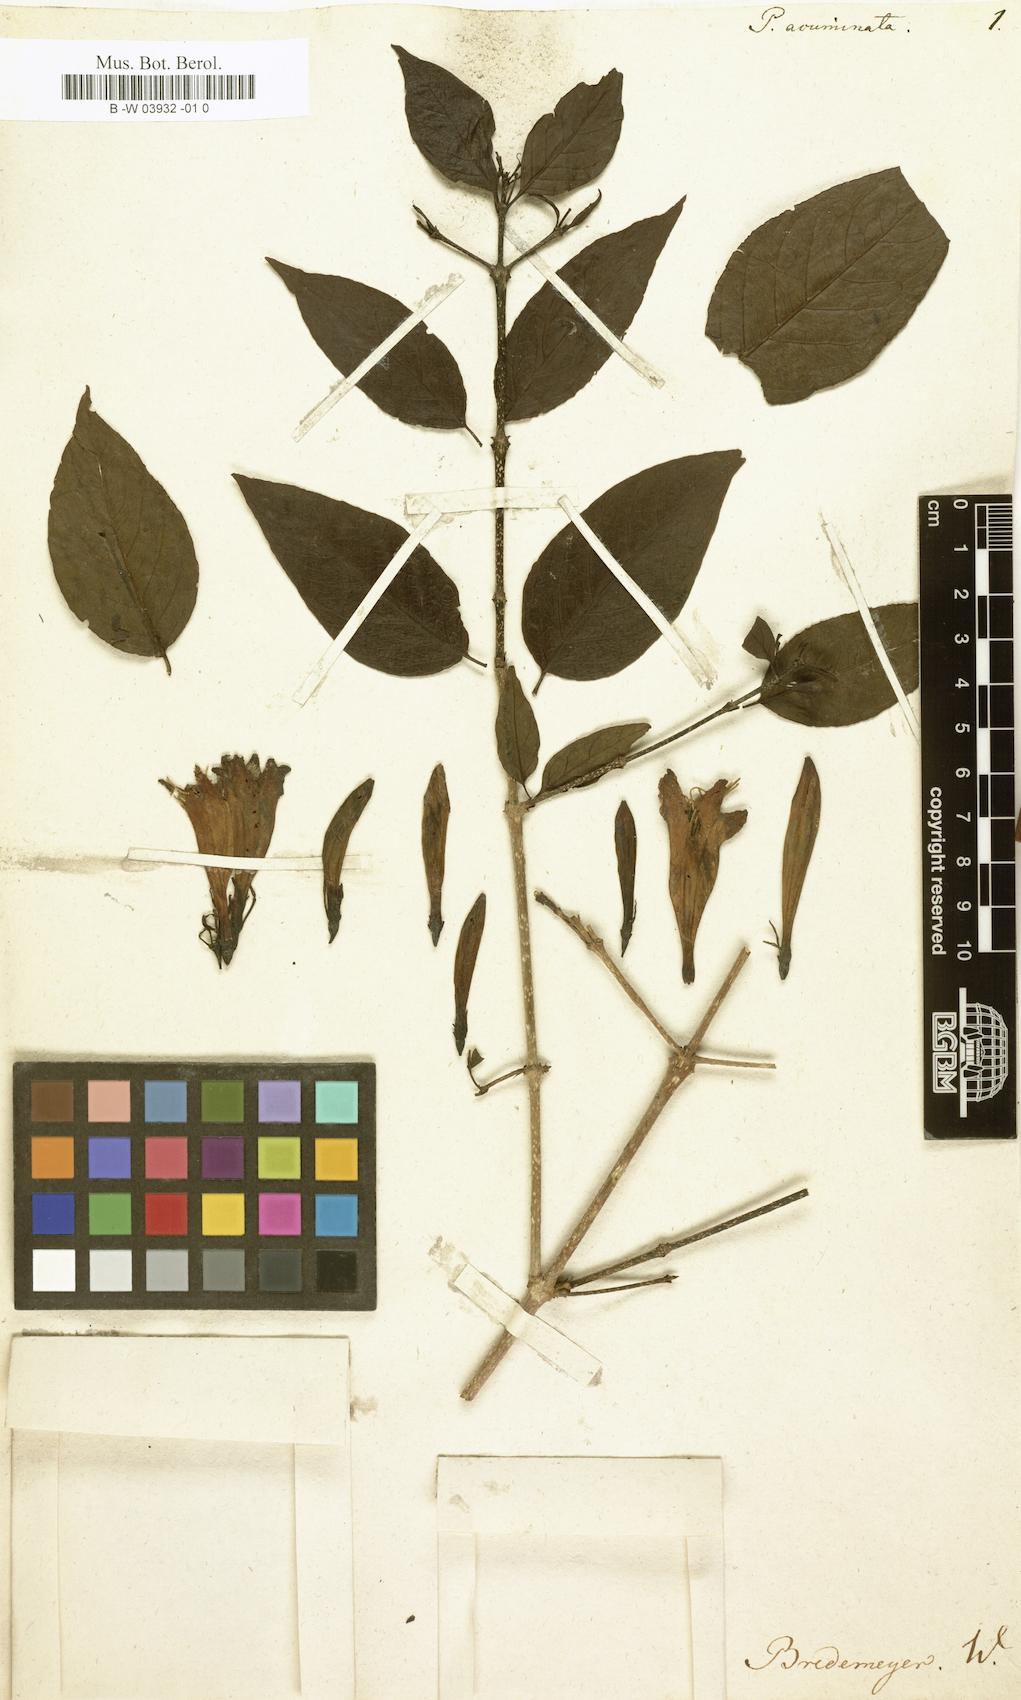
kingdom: Plantae
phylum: Tracheophyta
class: Magnoliopsida
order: Gentianales
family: Rubiaceae
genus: Coutarea
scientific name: Coutarea hexandra
